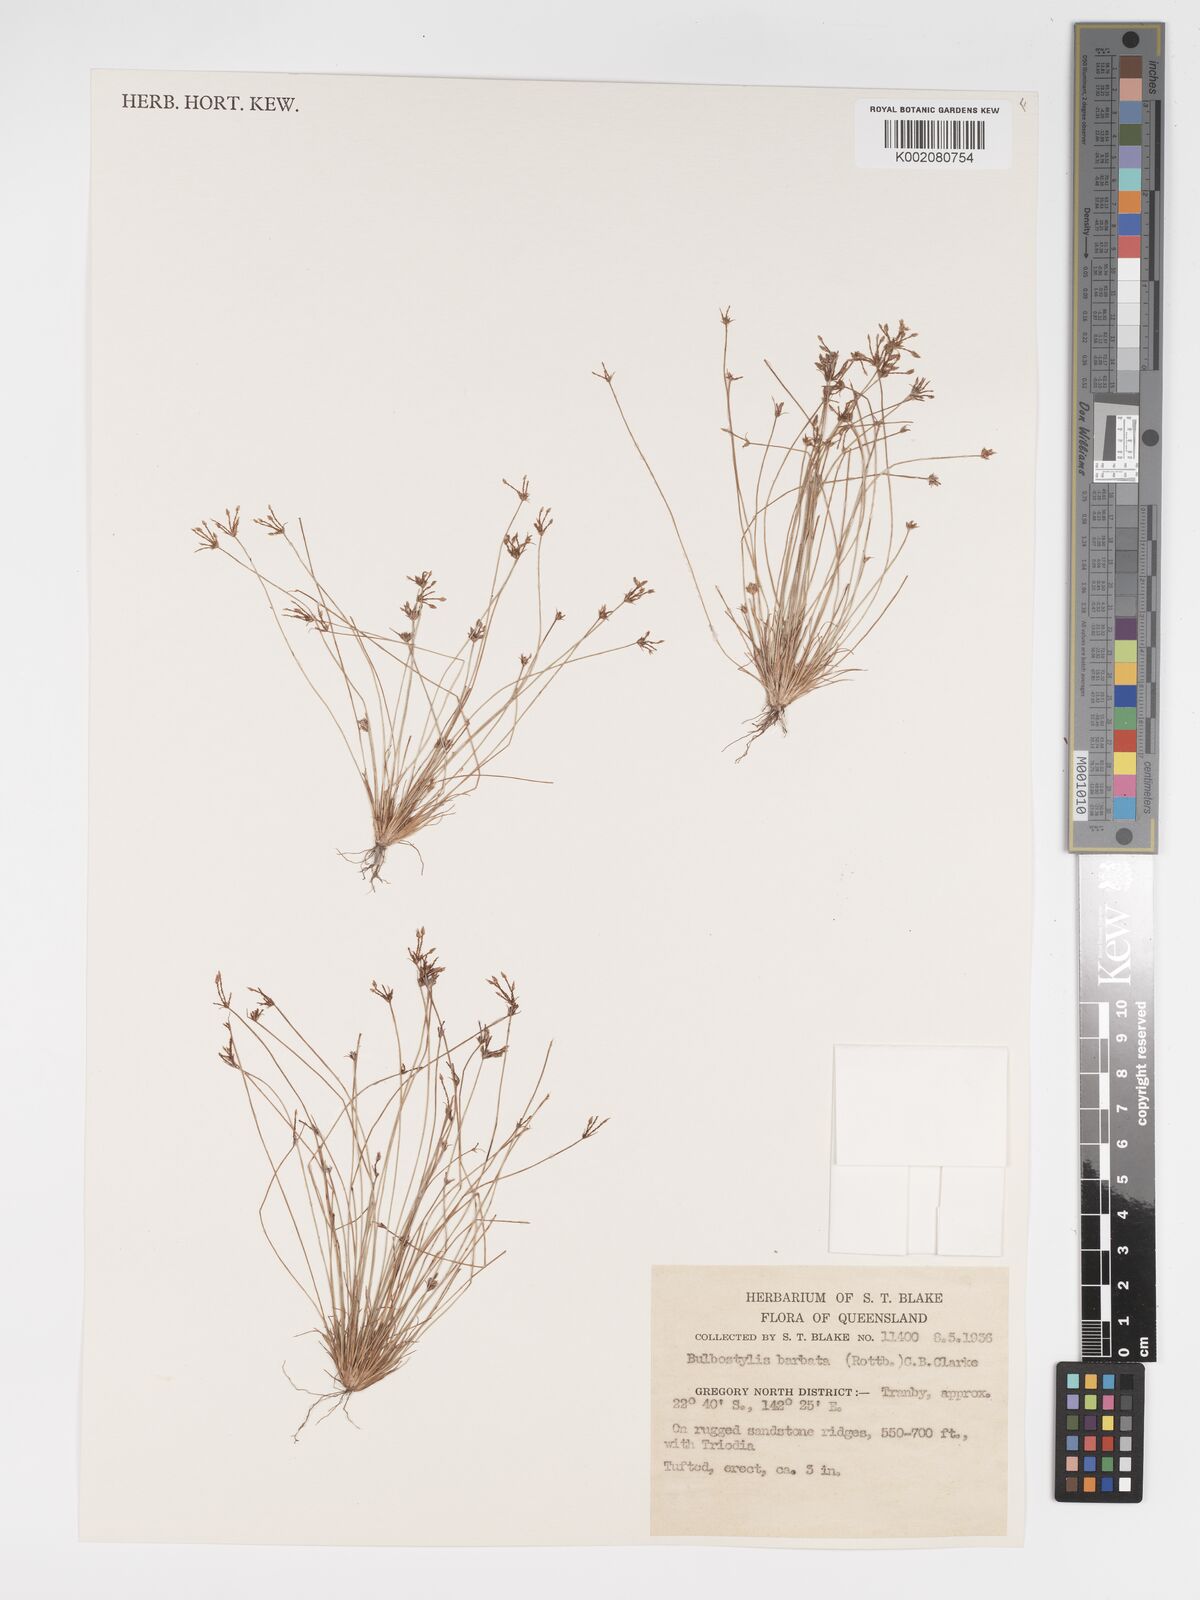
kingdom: Plantae
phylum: Tracheophyta
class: Liliopsida
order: Poales
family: Cyperaceae
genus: Bulbostylis
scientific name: Bulbostylis barbata
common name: Watergrass
